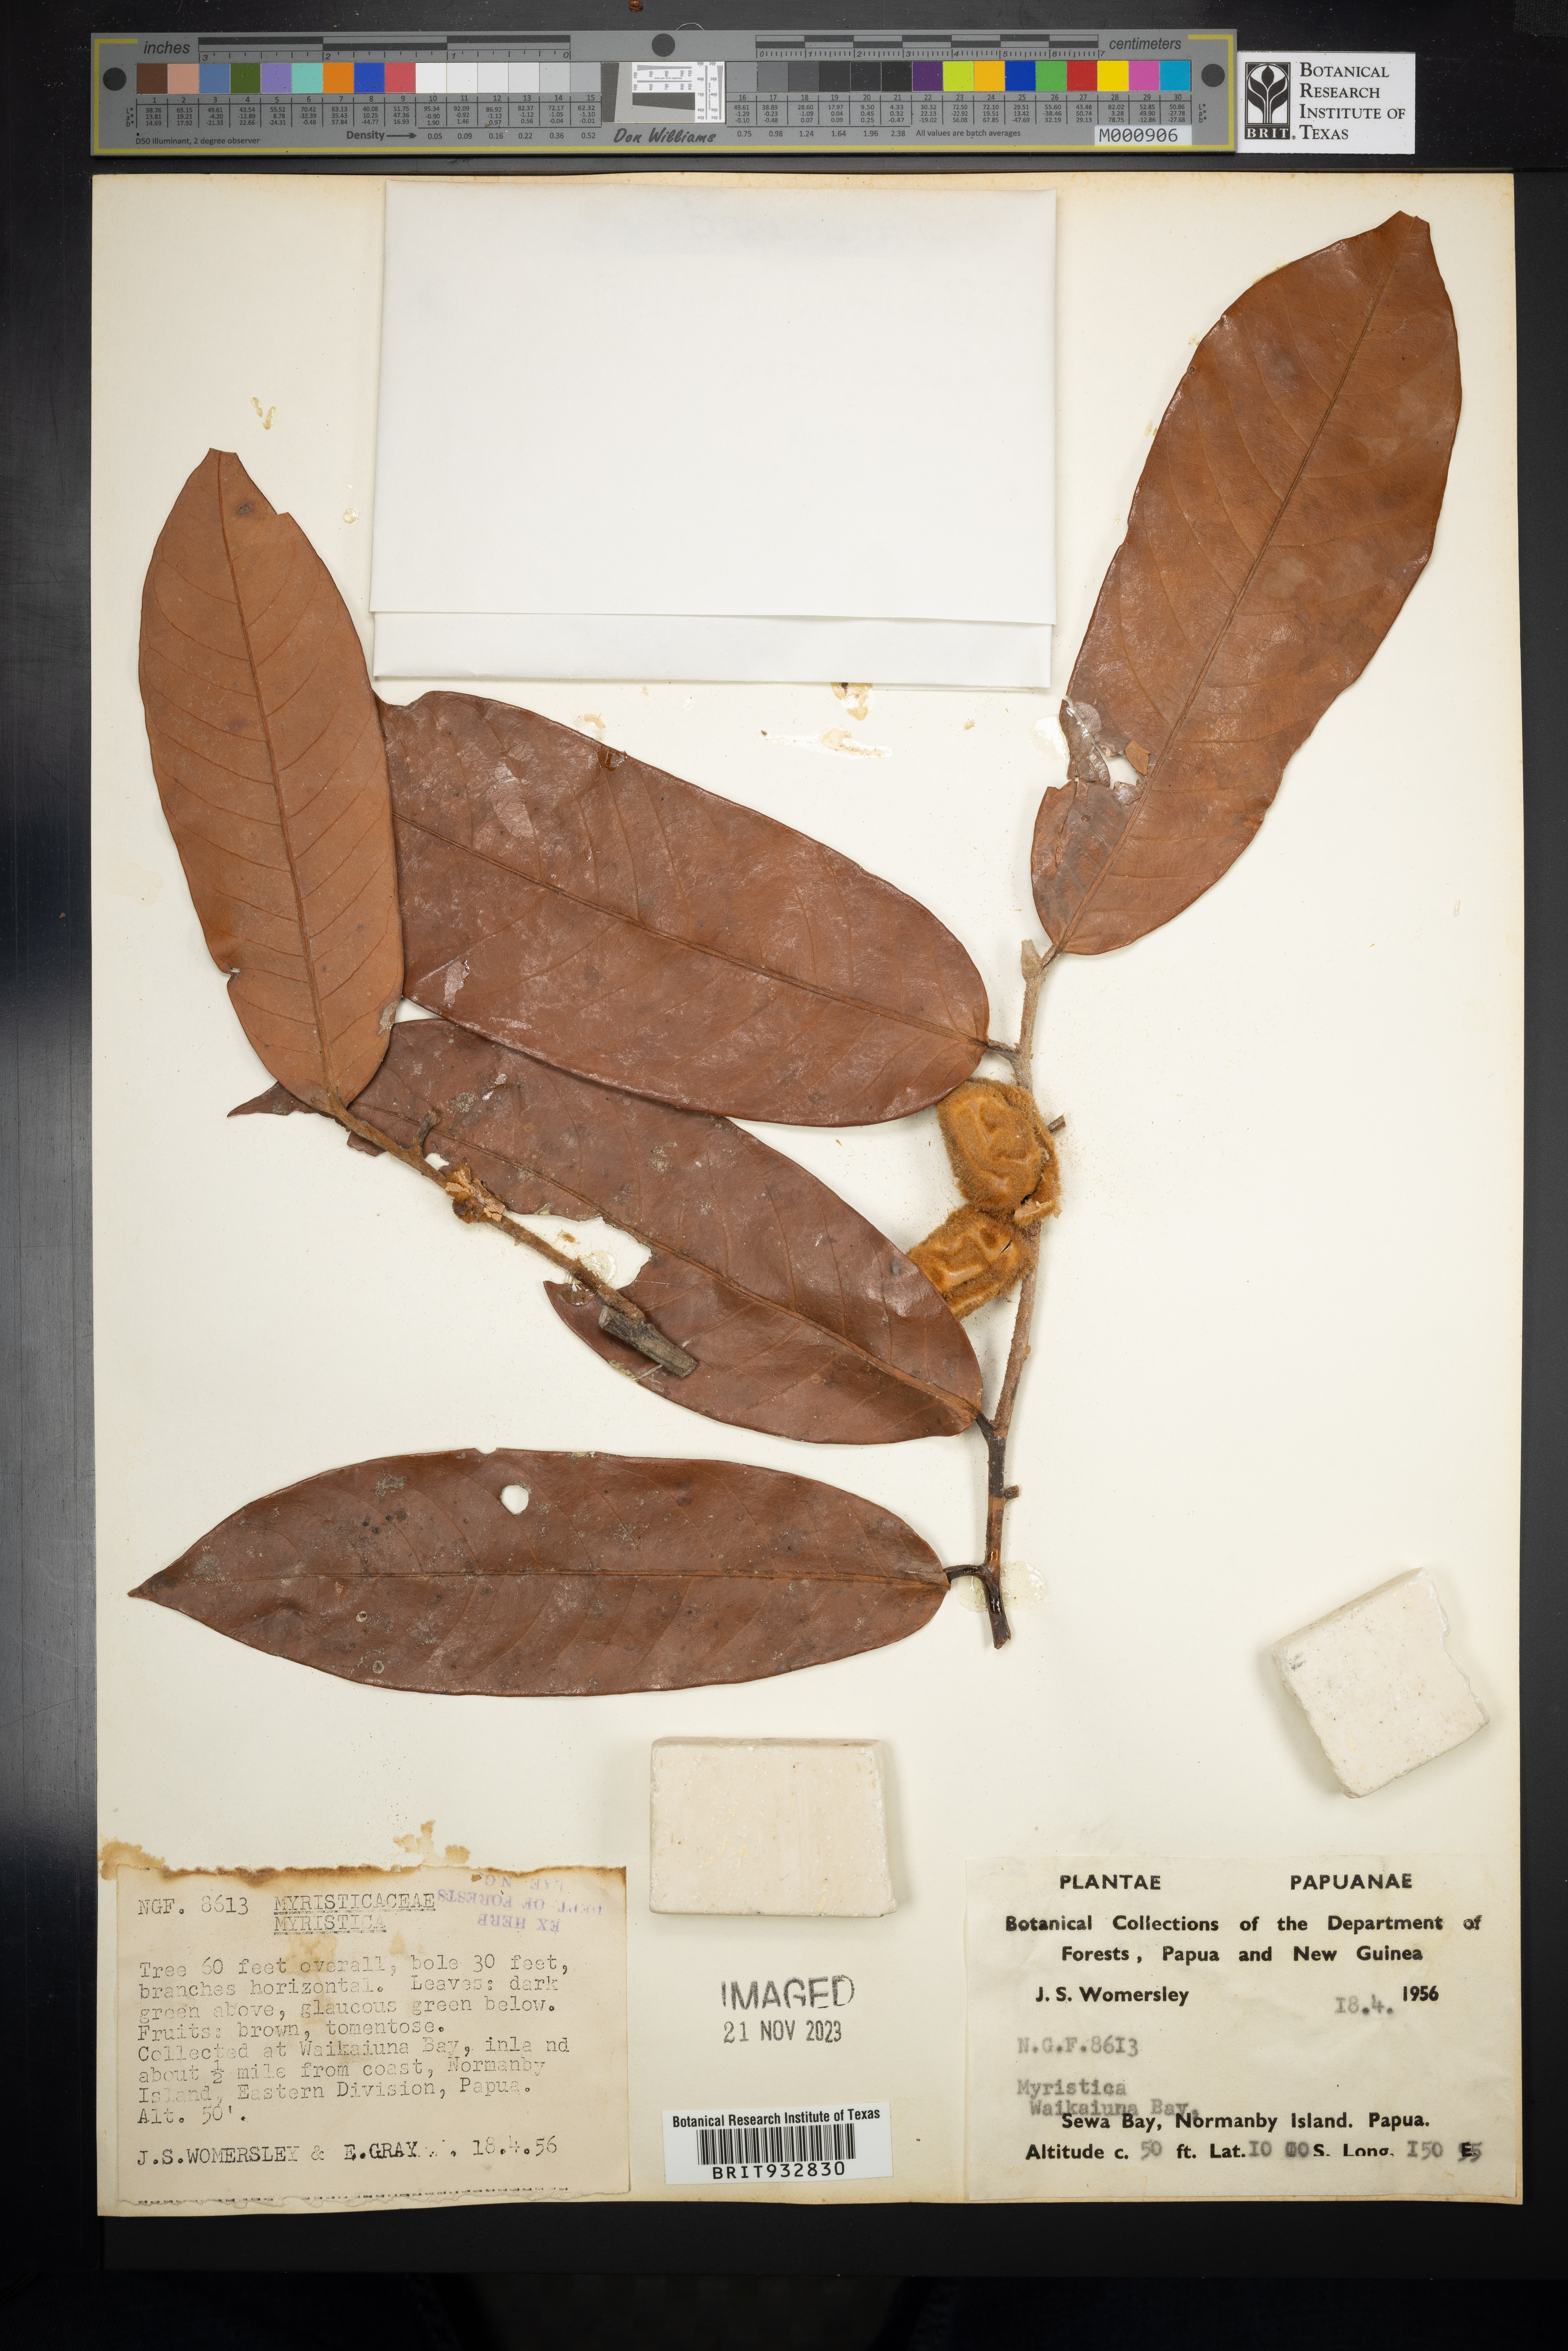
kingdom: Plantae
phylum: Tracheophyta
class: Magnoliopsida
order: Magnoliales
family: Myristicaceae
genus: Myristica
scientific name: Myristica
